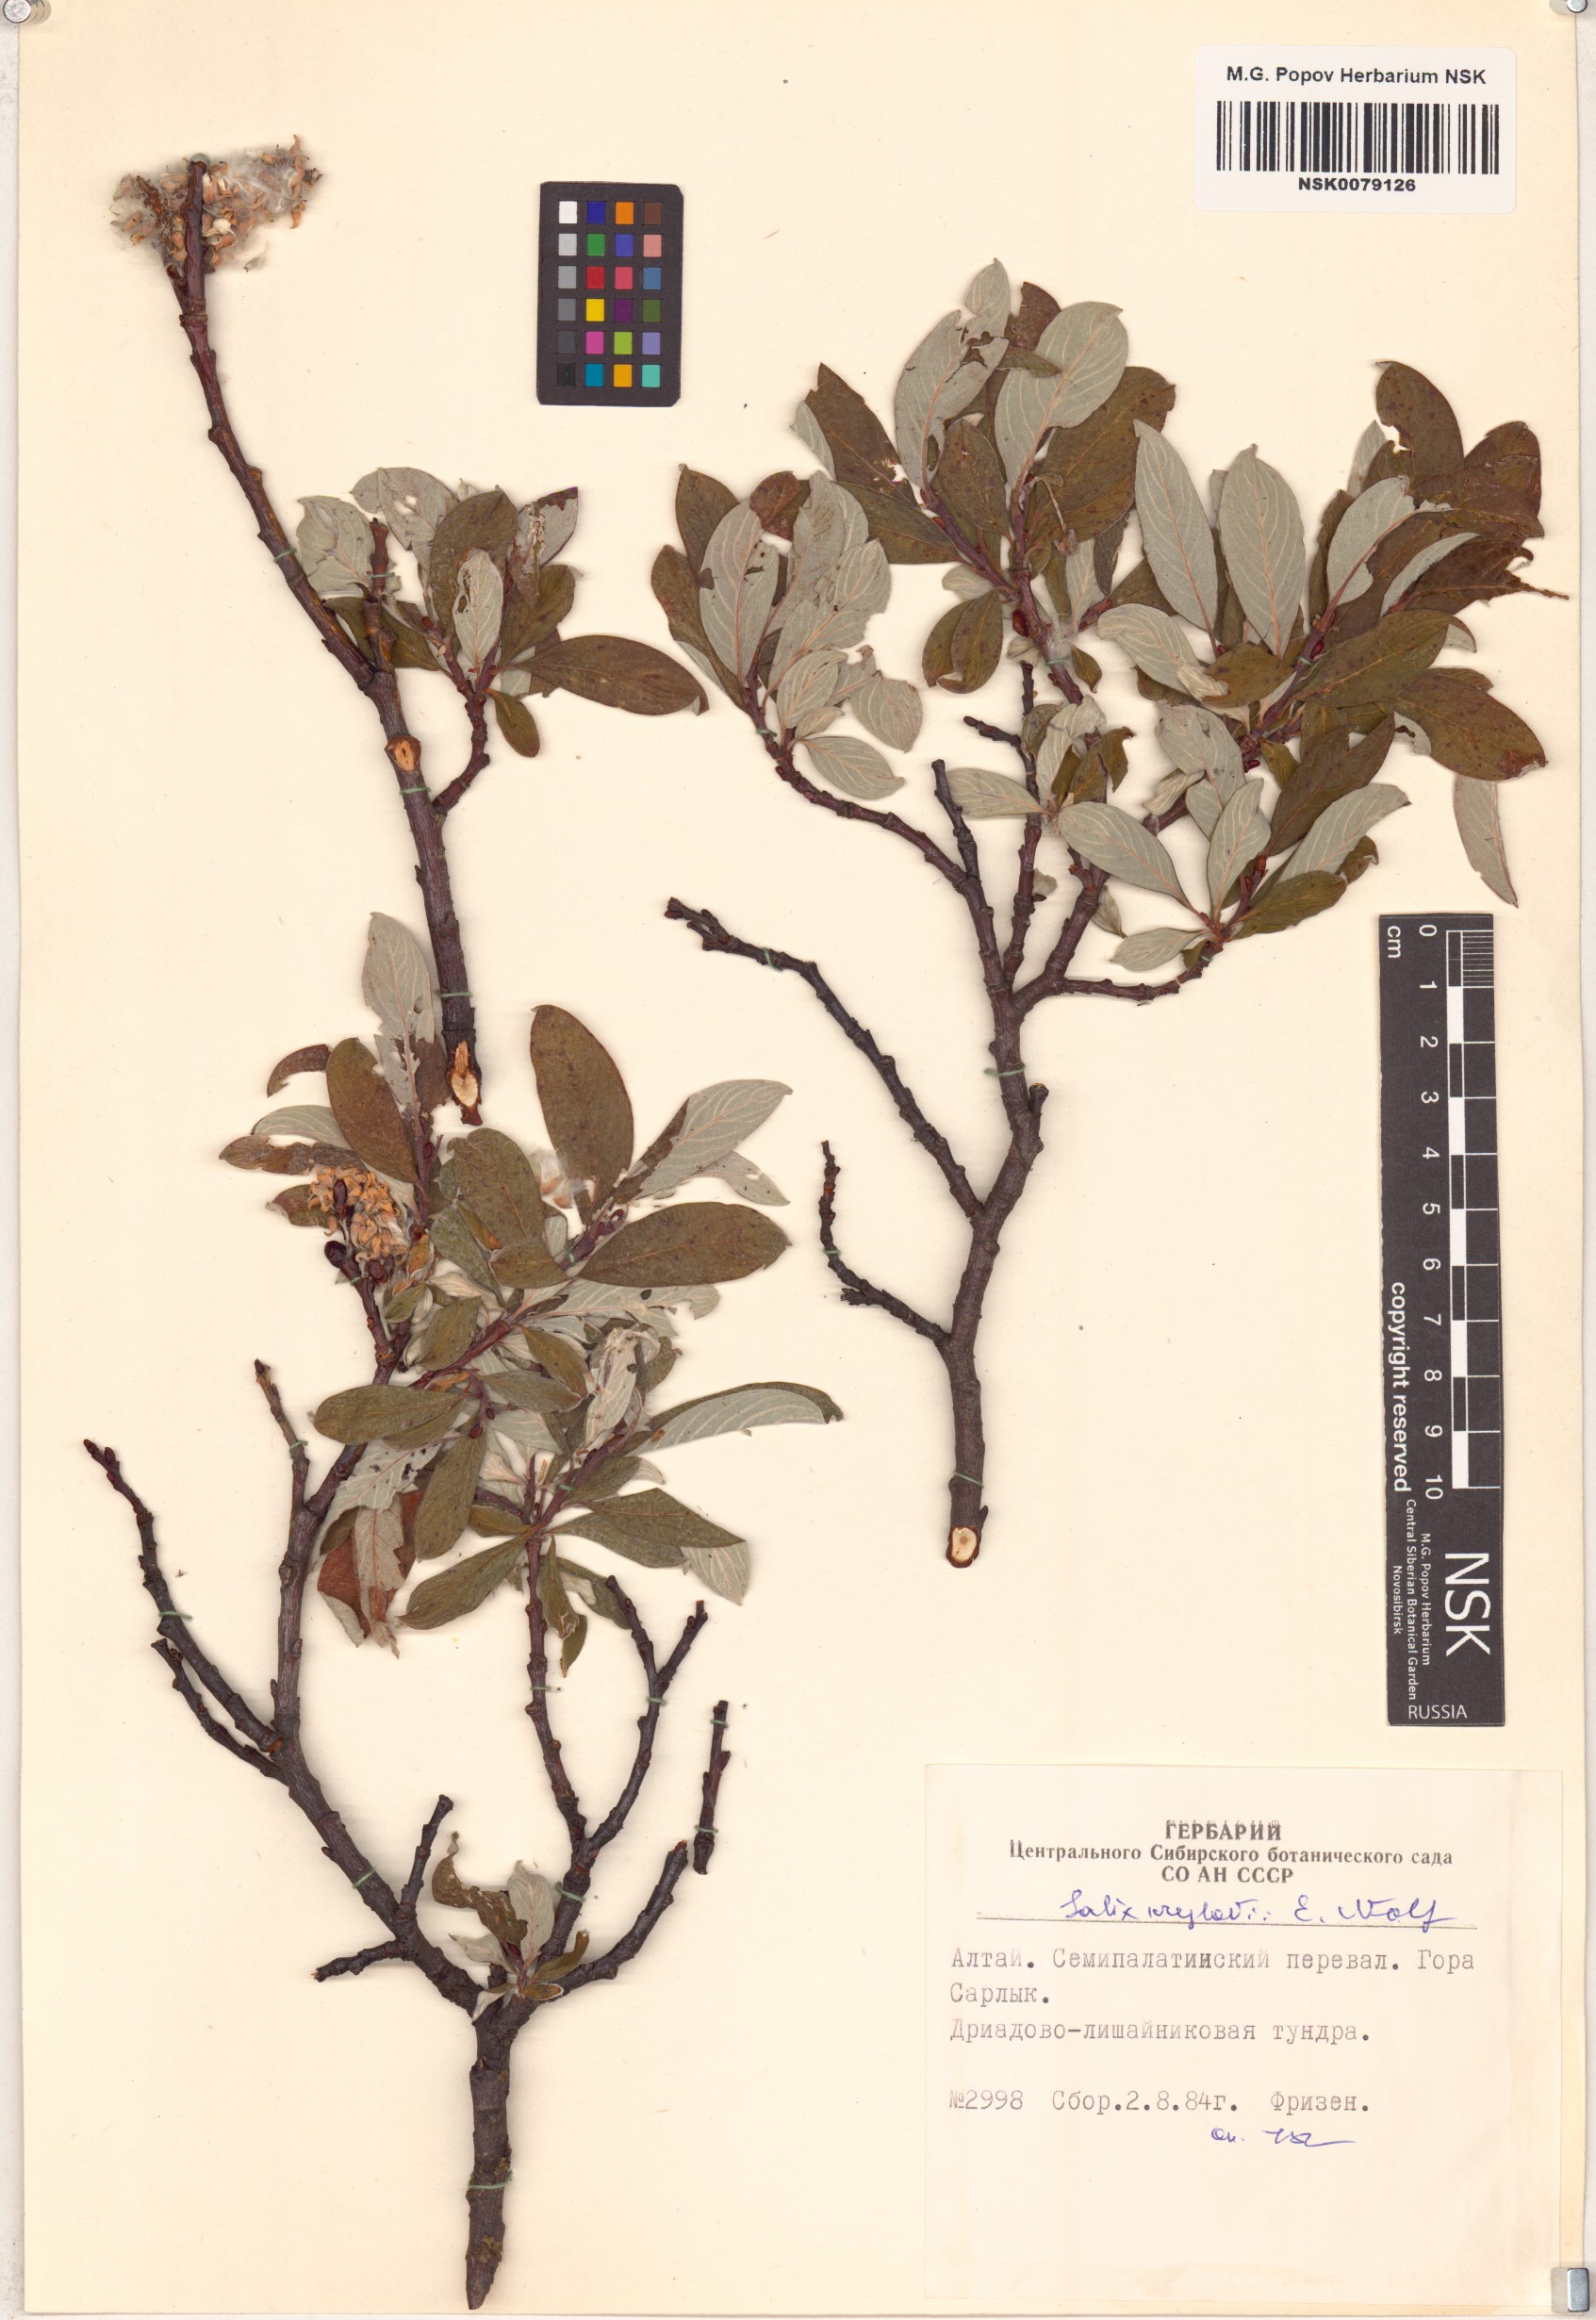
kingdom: Plantae
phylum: Tracheophyta
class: Magnoliopsida
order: Malpighiales
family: Salicaceae
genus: Salix
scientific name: Salix krylovii
